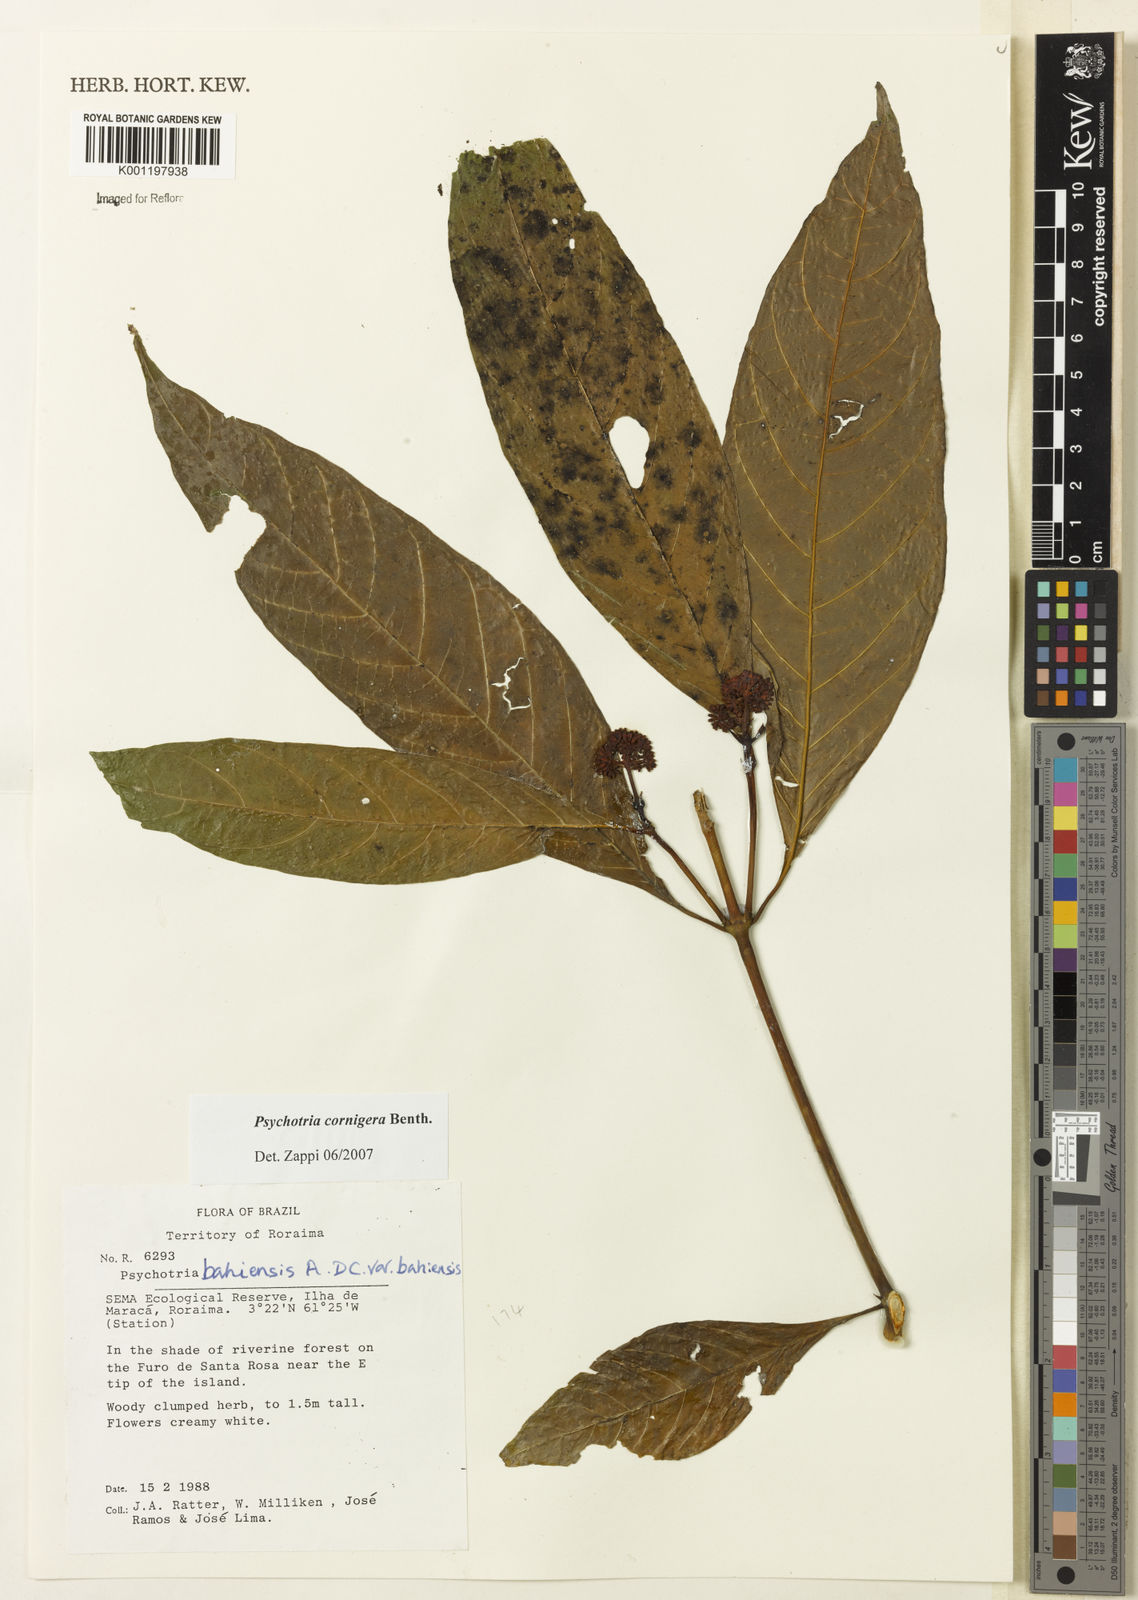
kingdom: Plantae
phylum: Tracheophyta
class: Magnoliopsida
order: Gentianales
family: Rubiaceae
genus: Psychotria
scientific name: Psychotria bahiensis
